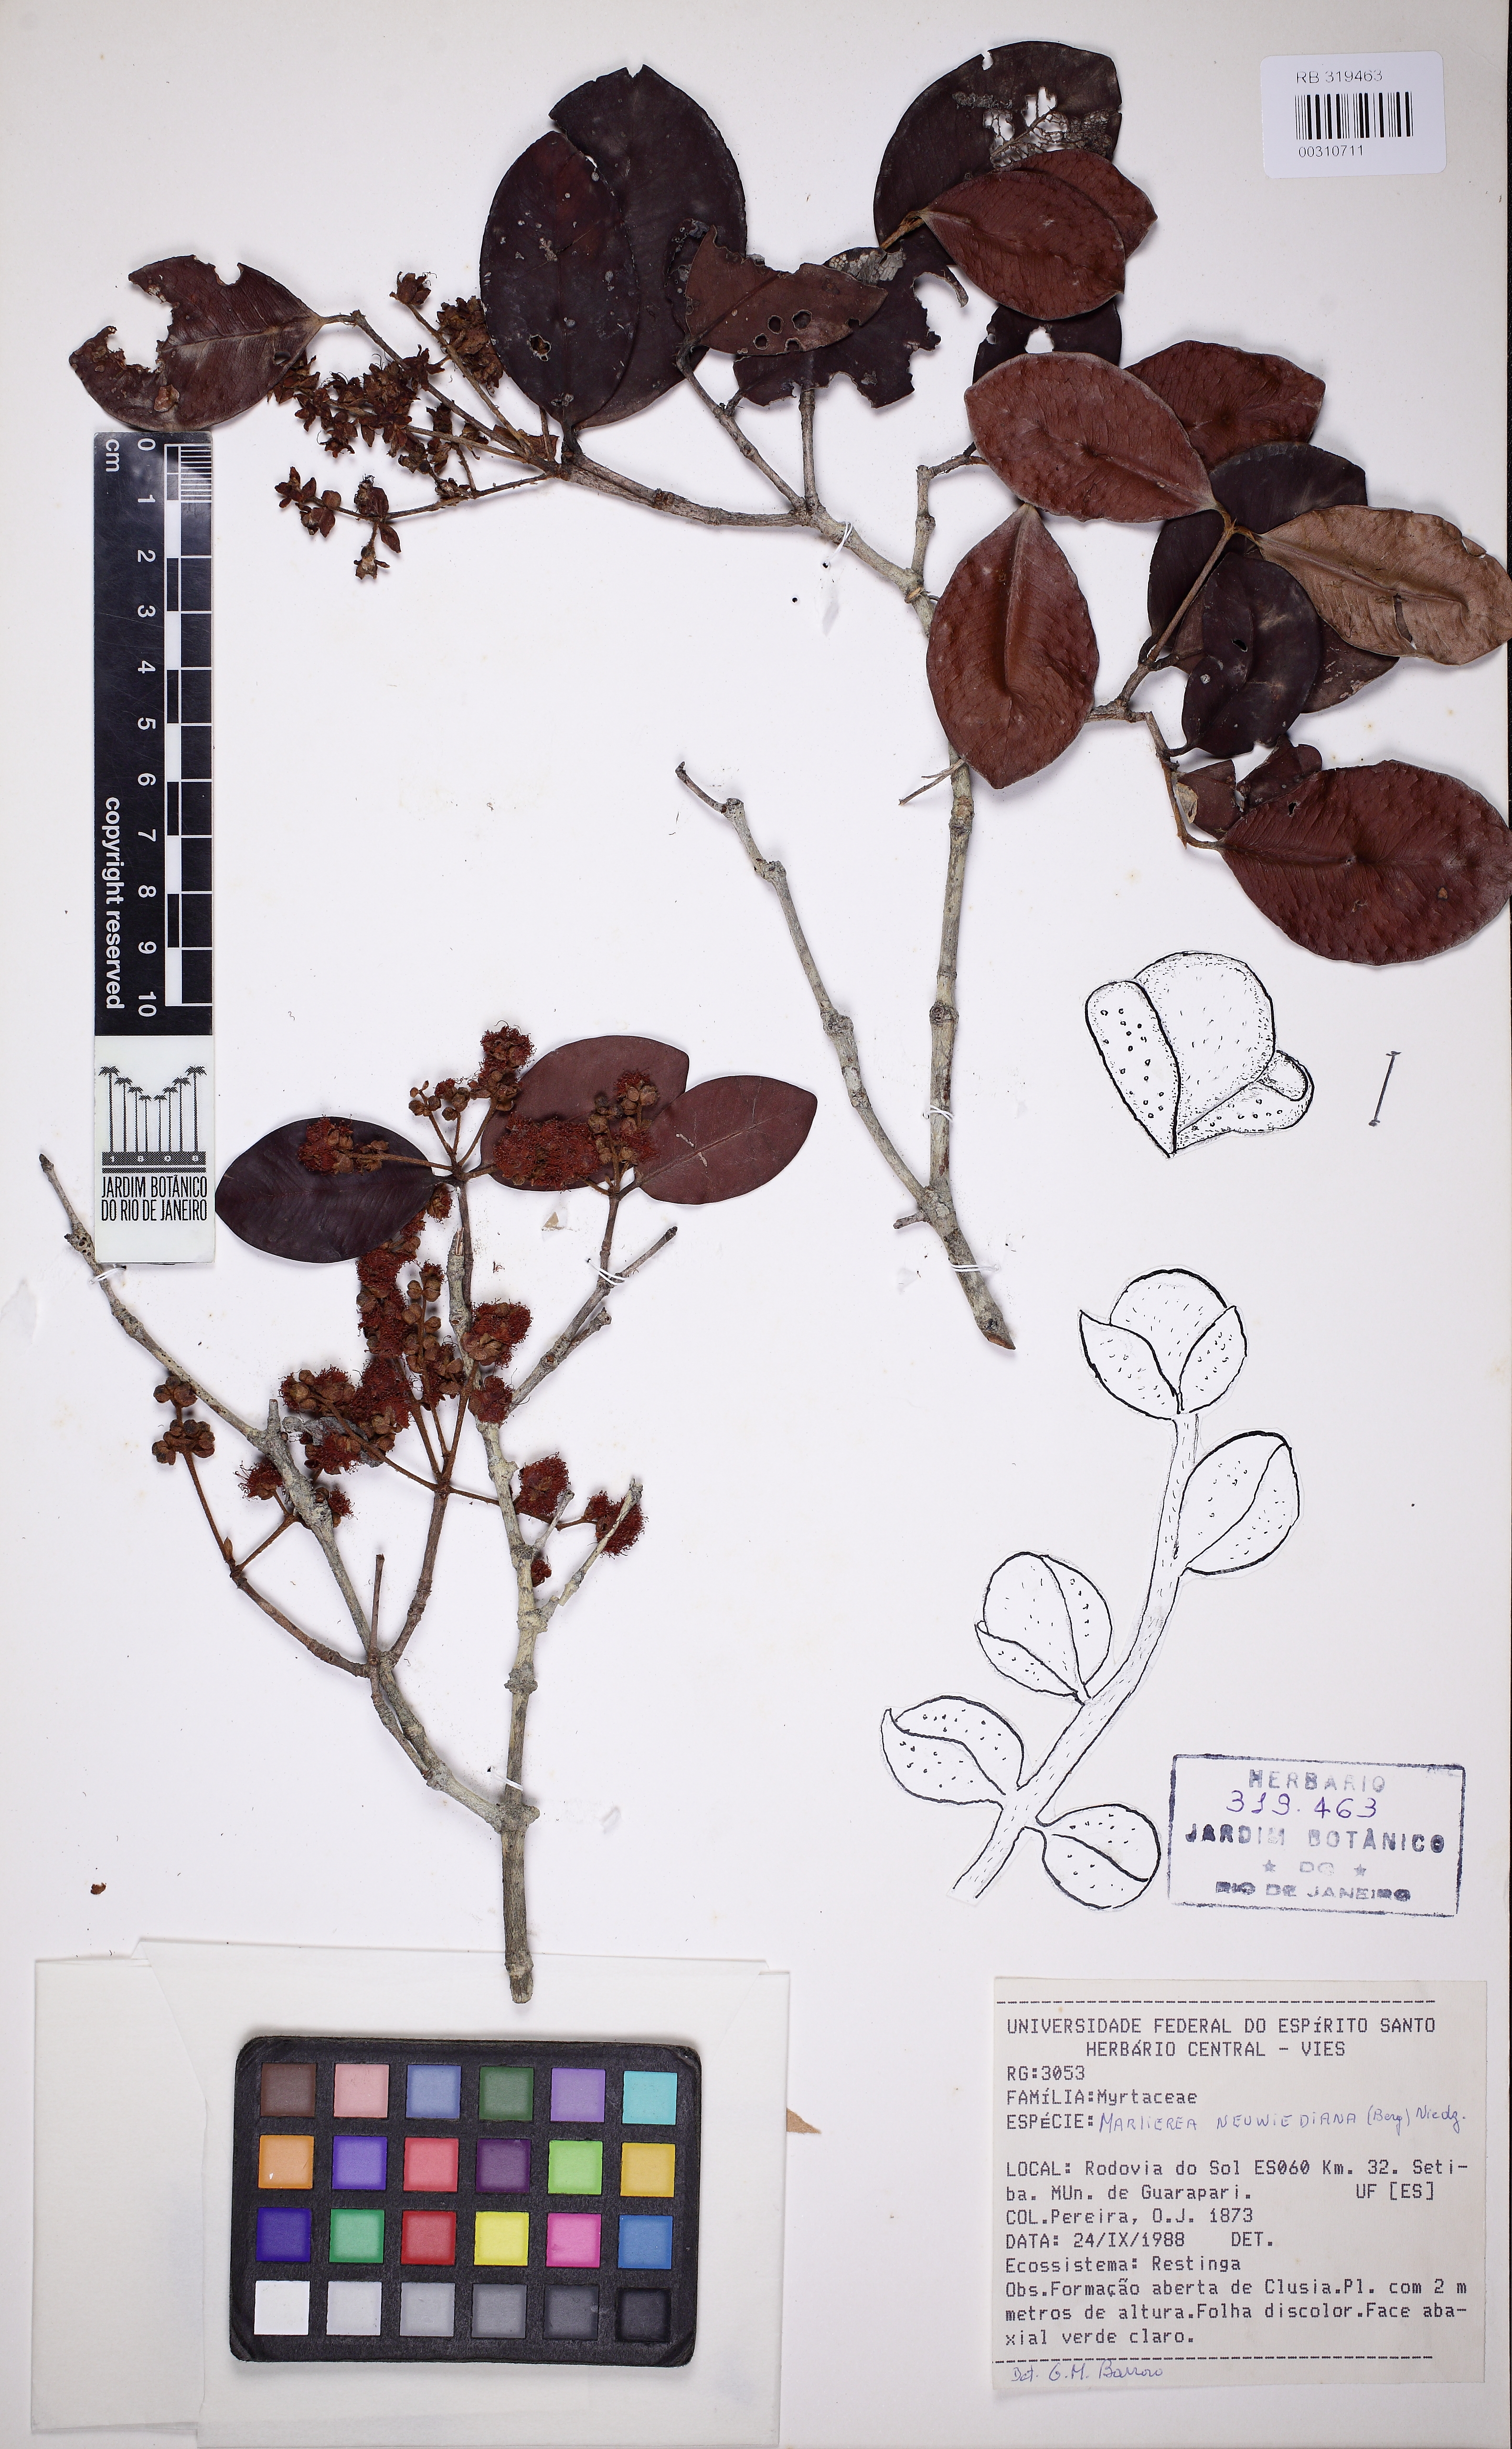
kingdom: Plantae
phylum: Tracheophyta
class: Magnoliopsida
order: Myrtales
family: Myrtaceae
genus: Myrcia
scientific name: Myrcia neuwiedeana
